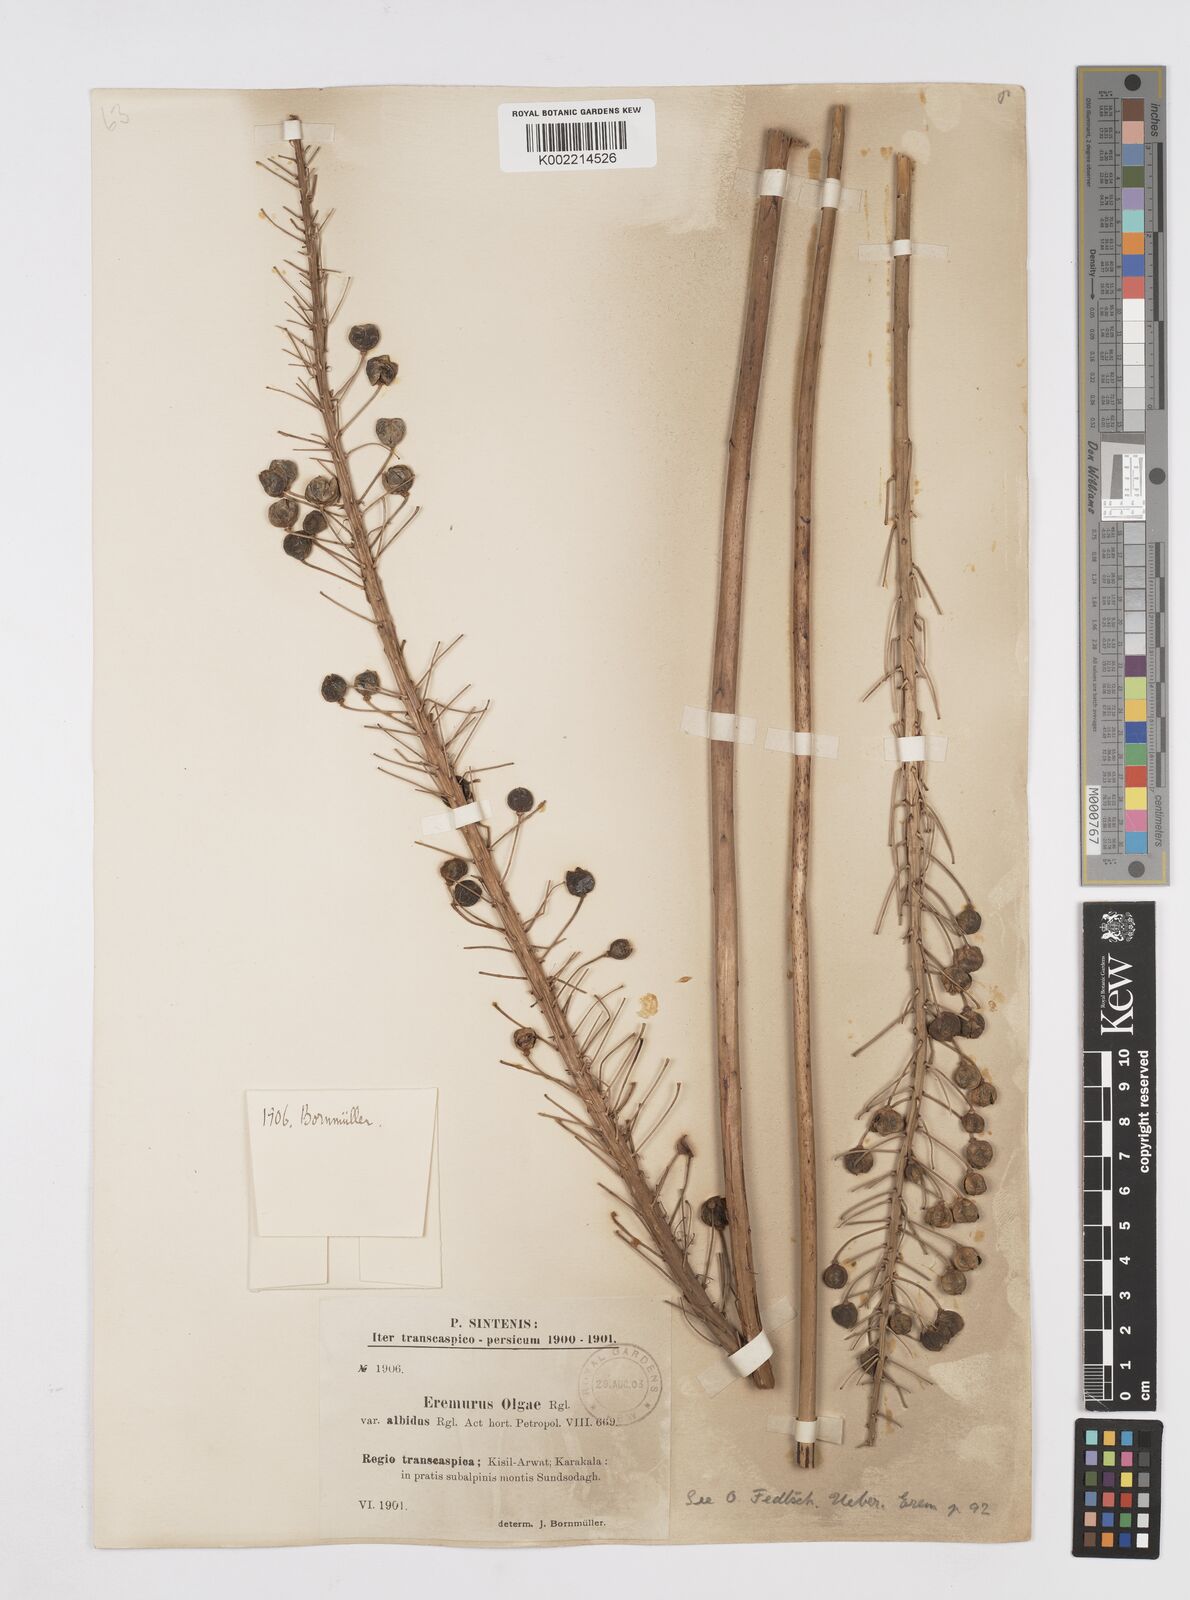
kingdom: Plantae
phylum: Tracheophyta
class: Liliopsida
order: Asparagales
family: Asphodelaceae
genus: Eremurus
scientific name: Eremurus olgae
